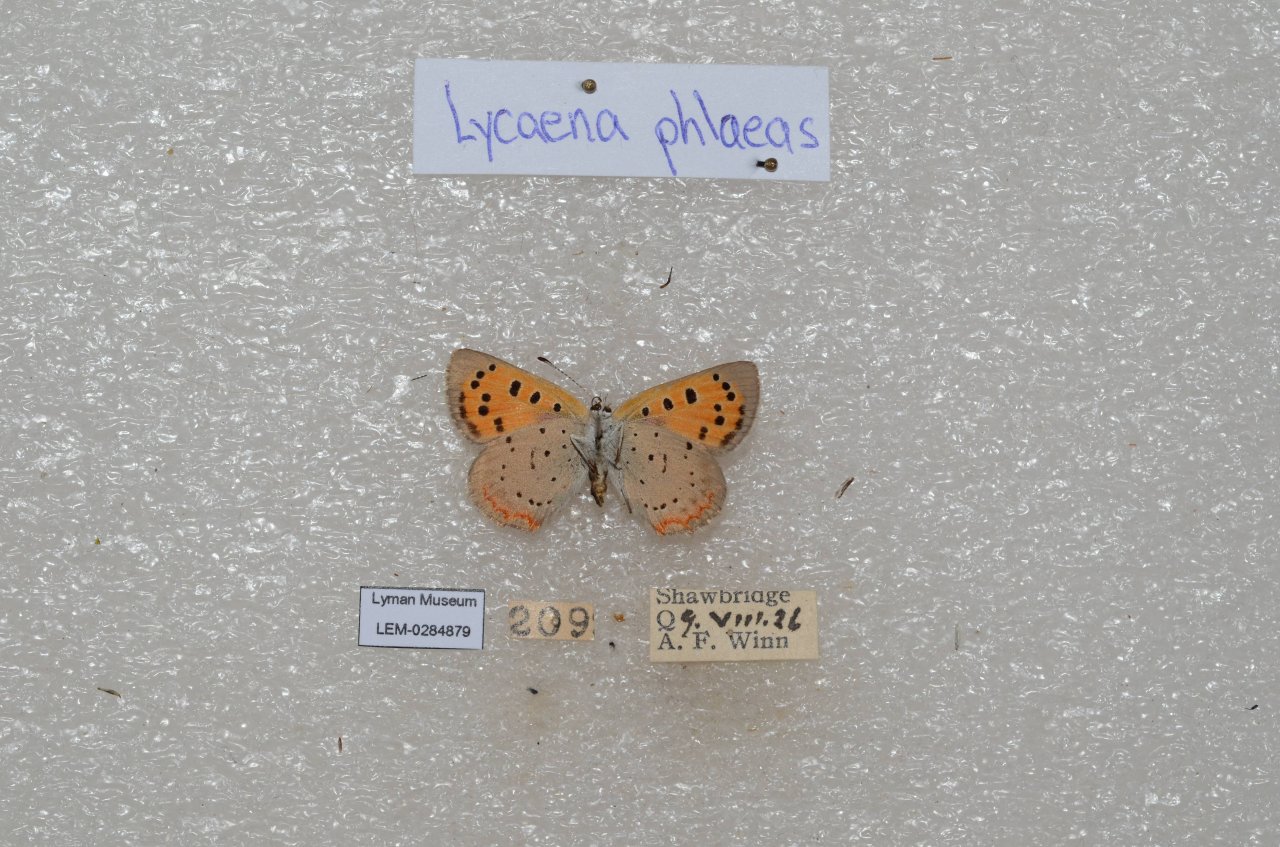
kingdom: Animalia
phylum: Arthropoda
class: Insecta
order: Lepidoptera
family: Lycaenidae
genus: Lycaena
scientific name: Lycaena phlaeas
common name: American Copper
